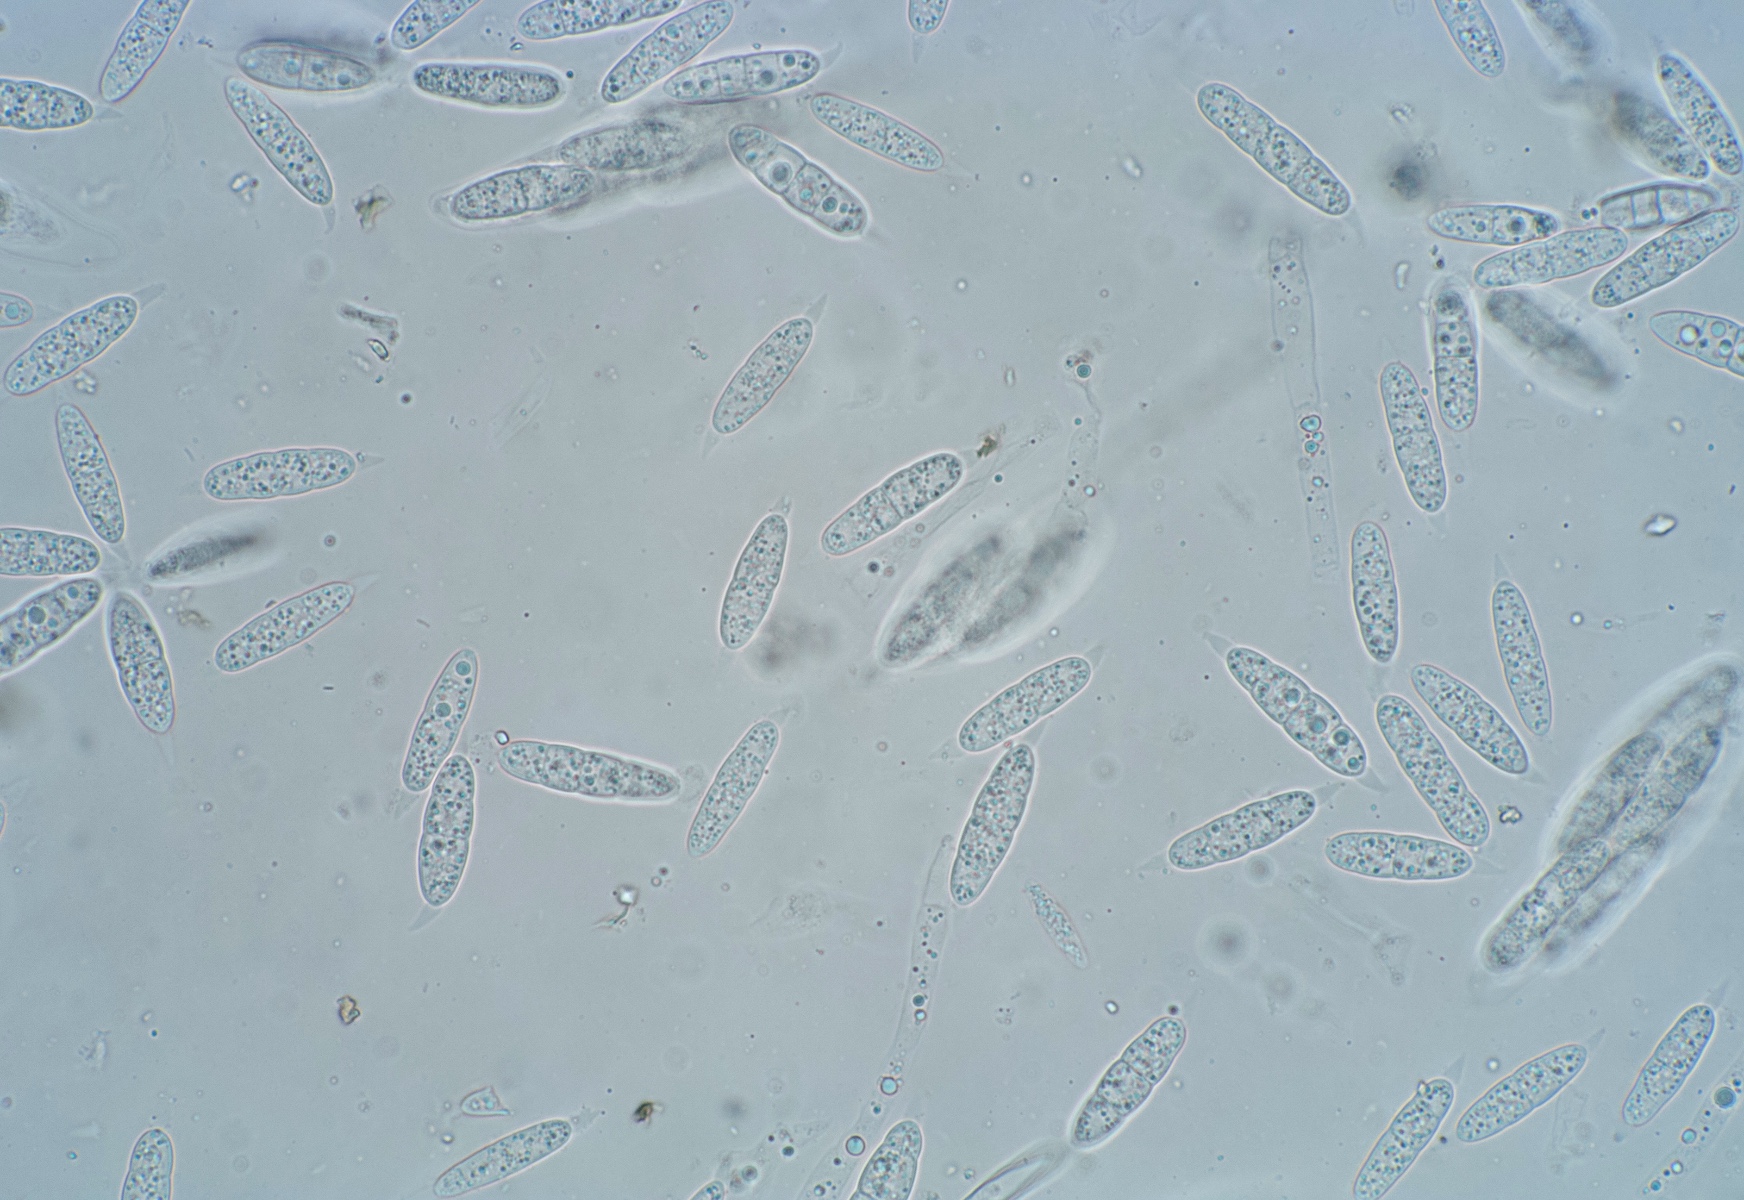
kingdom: Fungi
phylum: Ascomycota
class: Sordariomycetes
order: Diaporthales
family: Melanconidaceae
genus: Prosthecium
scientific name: Prosthecium platanoidis
